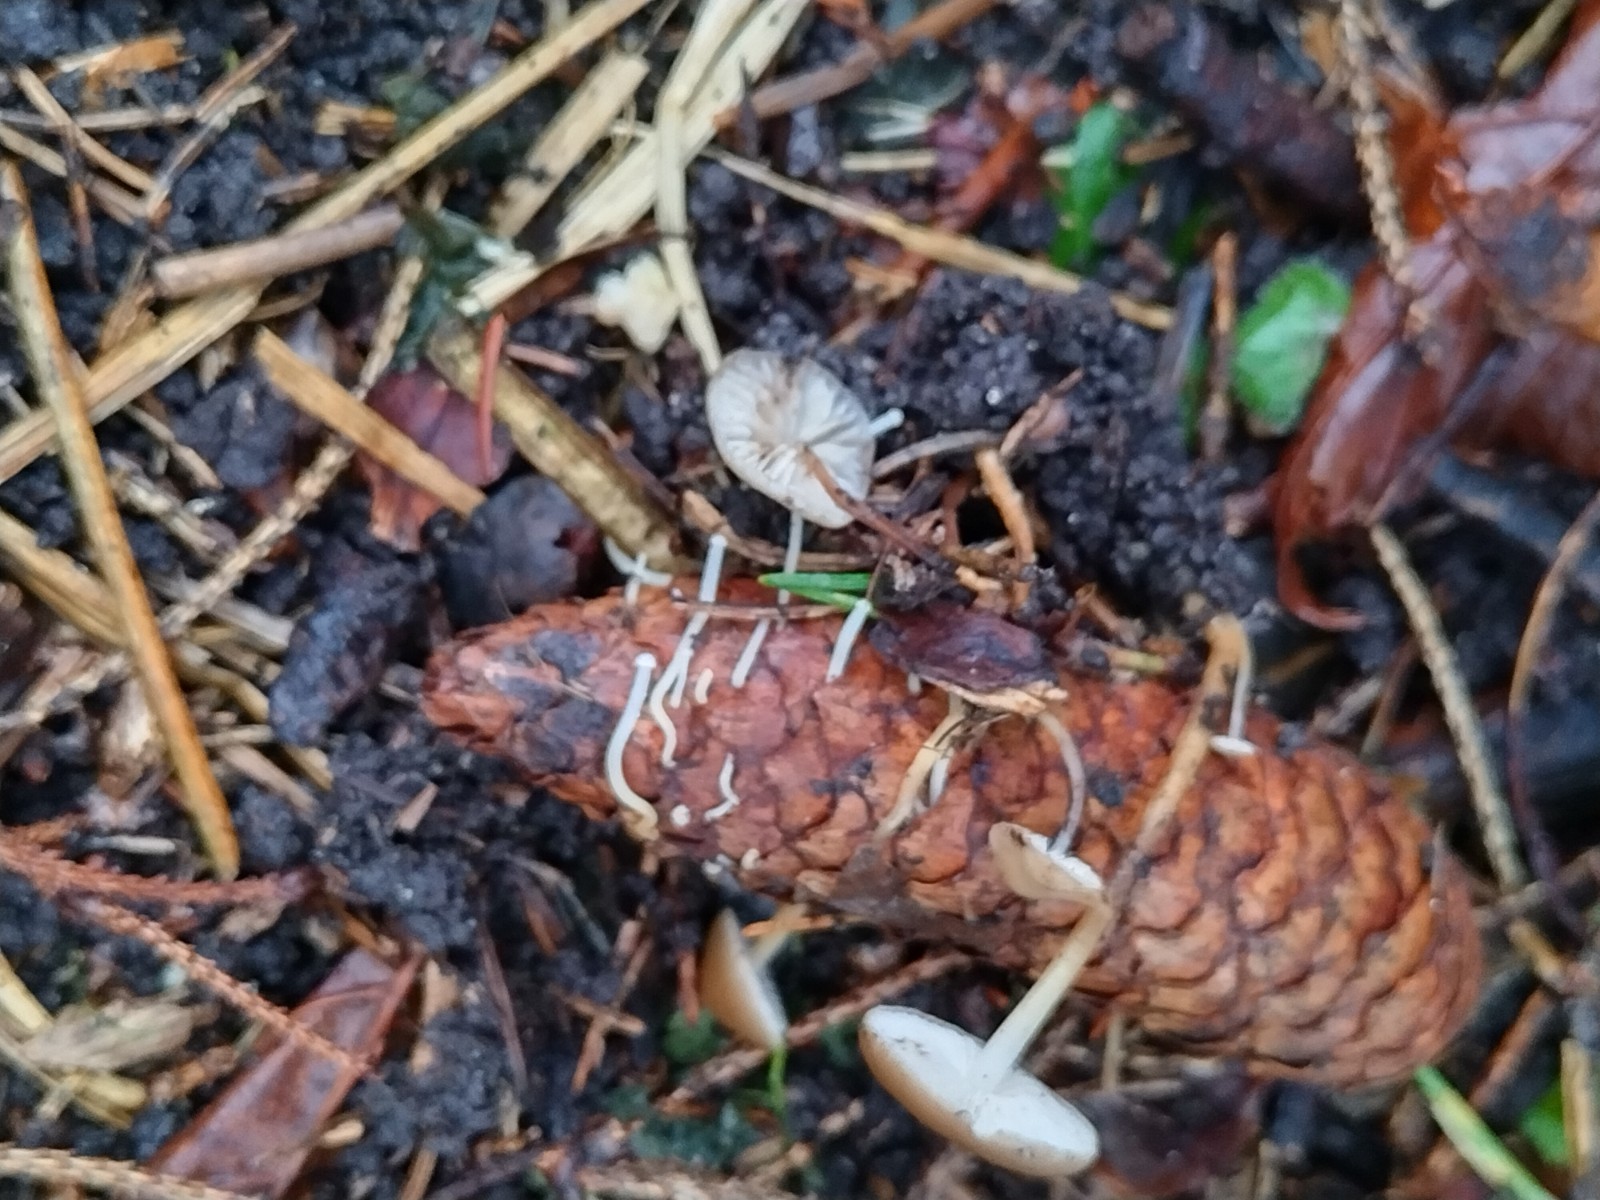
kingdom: Fungi
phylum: Basidiomycota
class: Agaricomycetes
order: Agaricales
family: Physalacriaceae
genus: Strobilurus
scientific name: Strobilurus esculentus
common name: gran-koglehat
